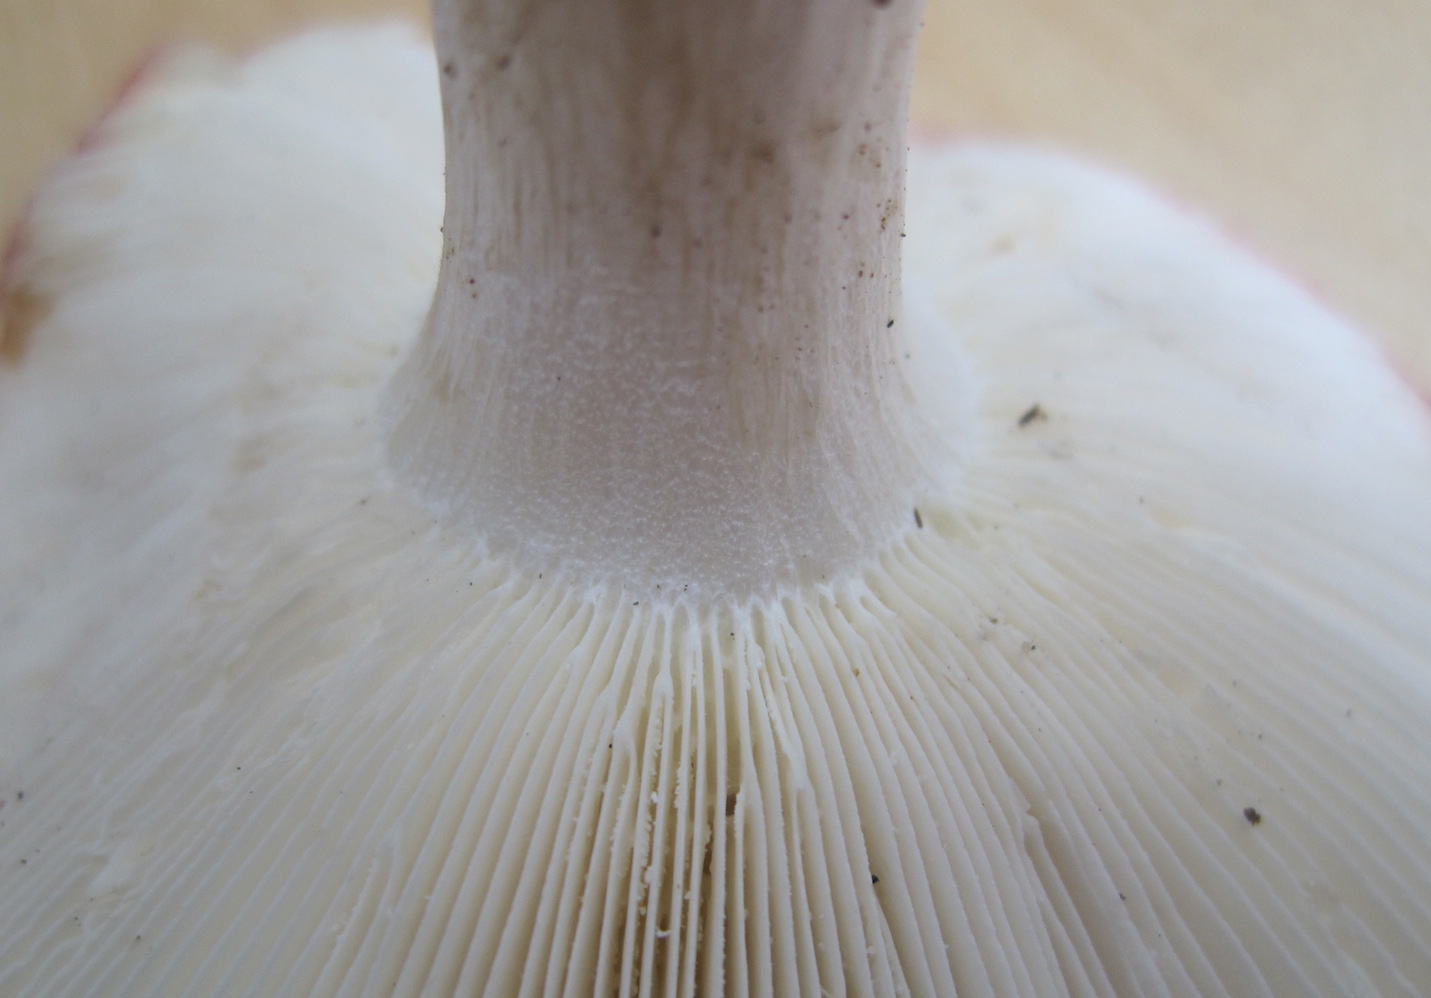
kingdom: Fungi
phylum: Basidiomycota
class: Agaricomycetes
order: Russulales
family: Russulaceae
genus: Russula
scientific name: Russula aurora
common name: rosa skørhat
